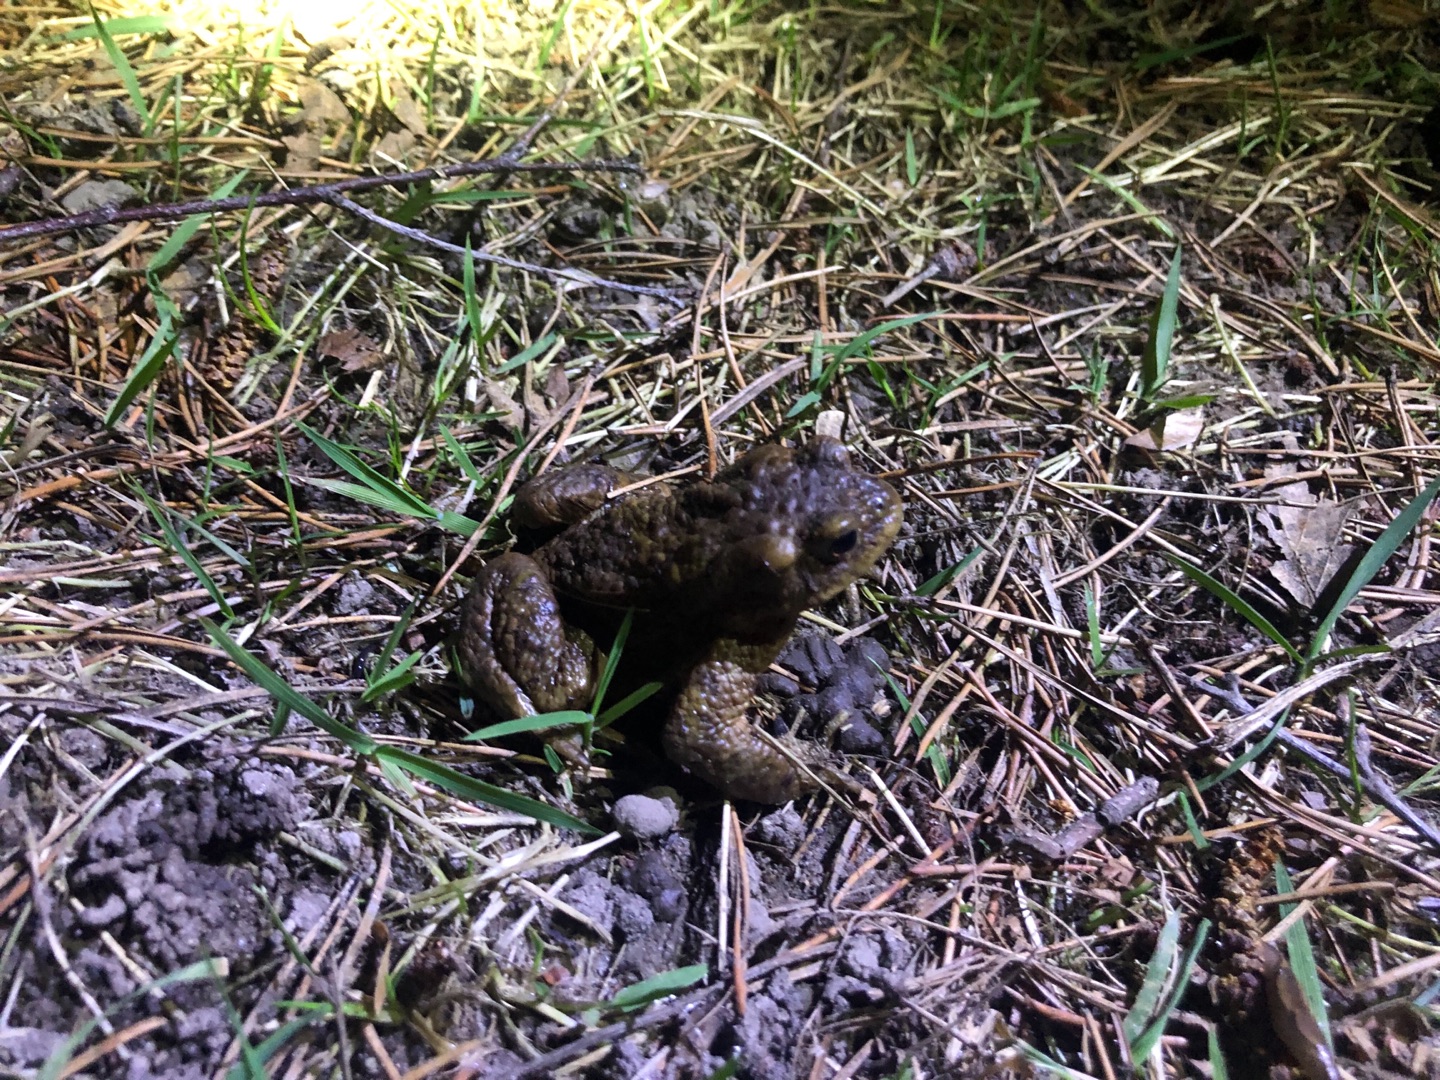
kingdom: Animalia
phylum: Chordata
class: Amphibia
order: Anura
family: Bufonidae
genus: Bufo
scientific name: Bufo bufo
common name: Skrubtudse
